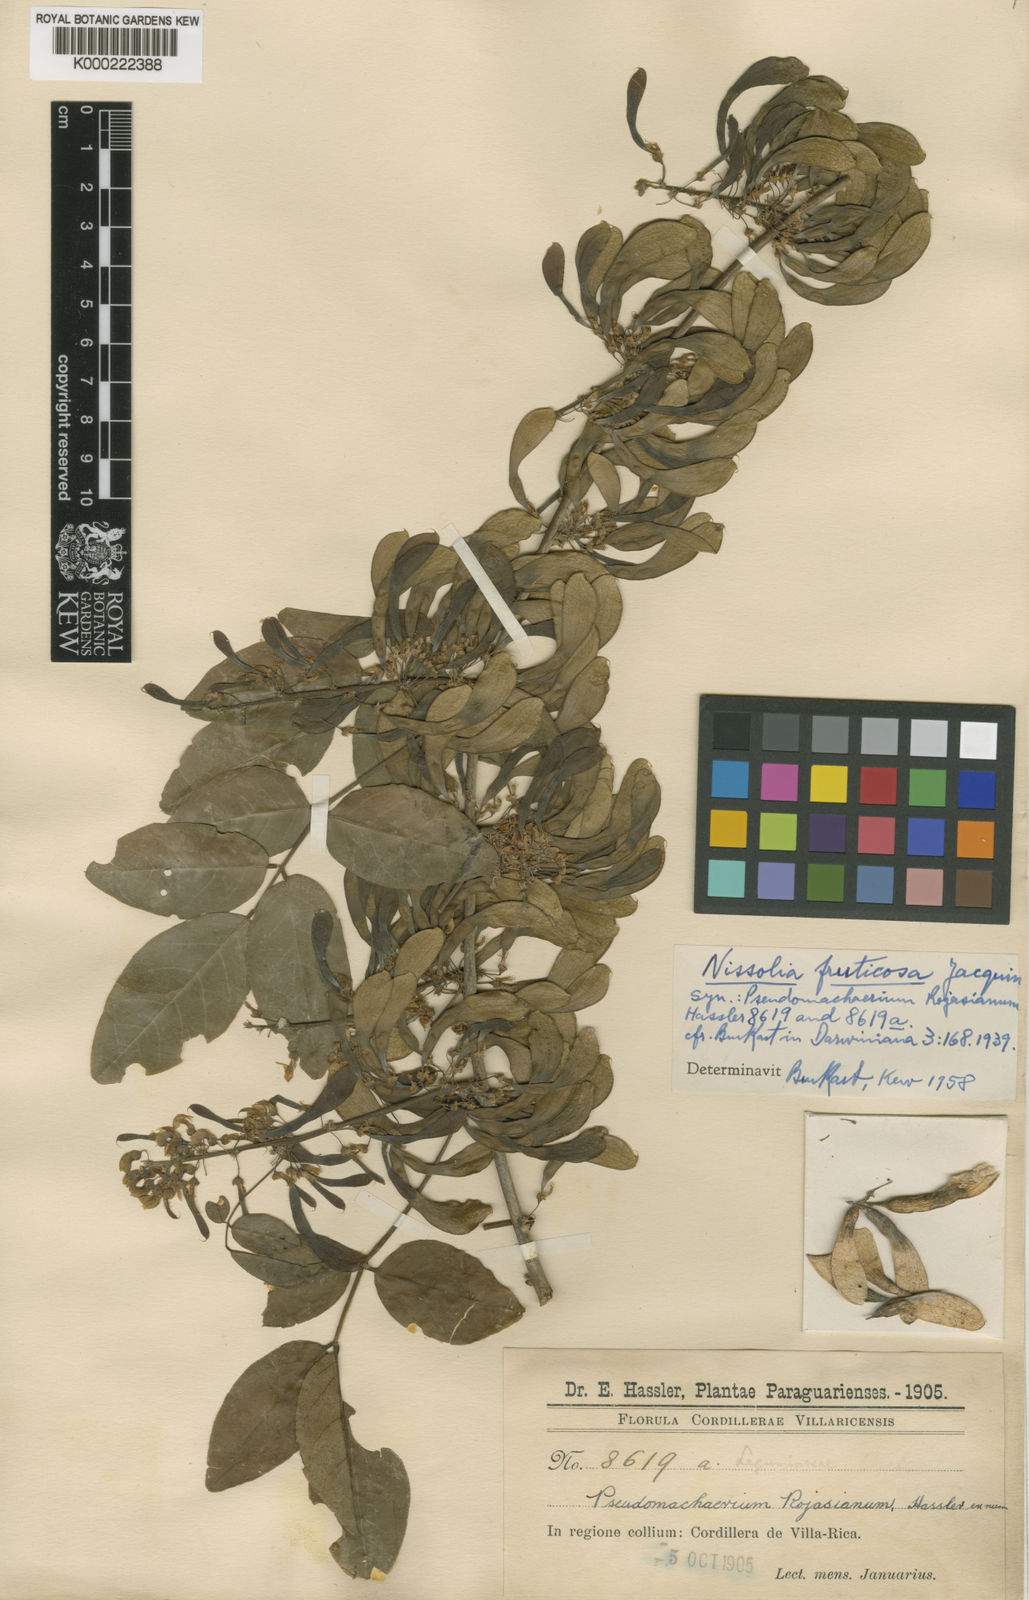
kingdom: Plantae
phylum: Tracheophyta
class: Magnoliopsida
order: Fabales
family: Fabaceae
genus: Nissolia
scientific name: Nissolia fruticosa
